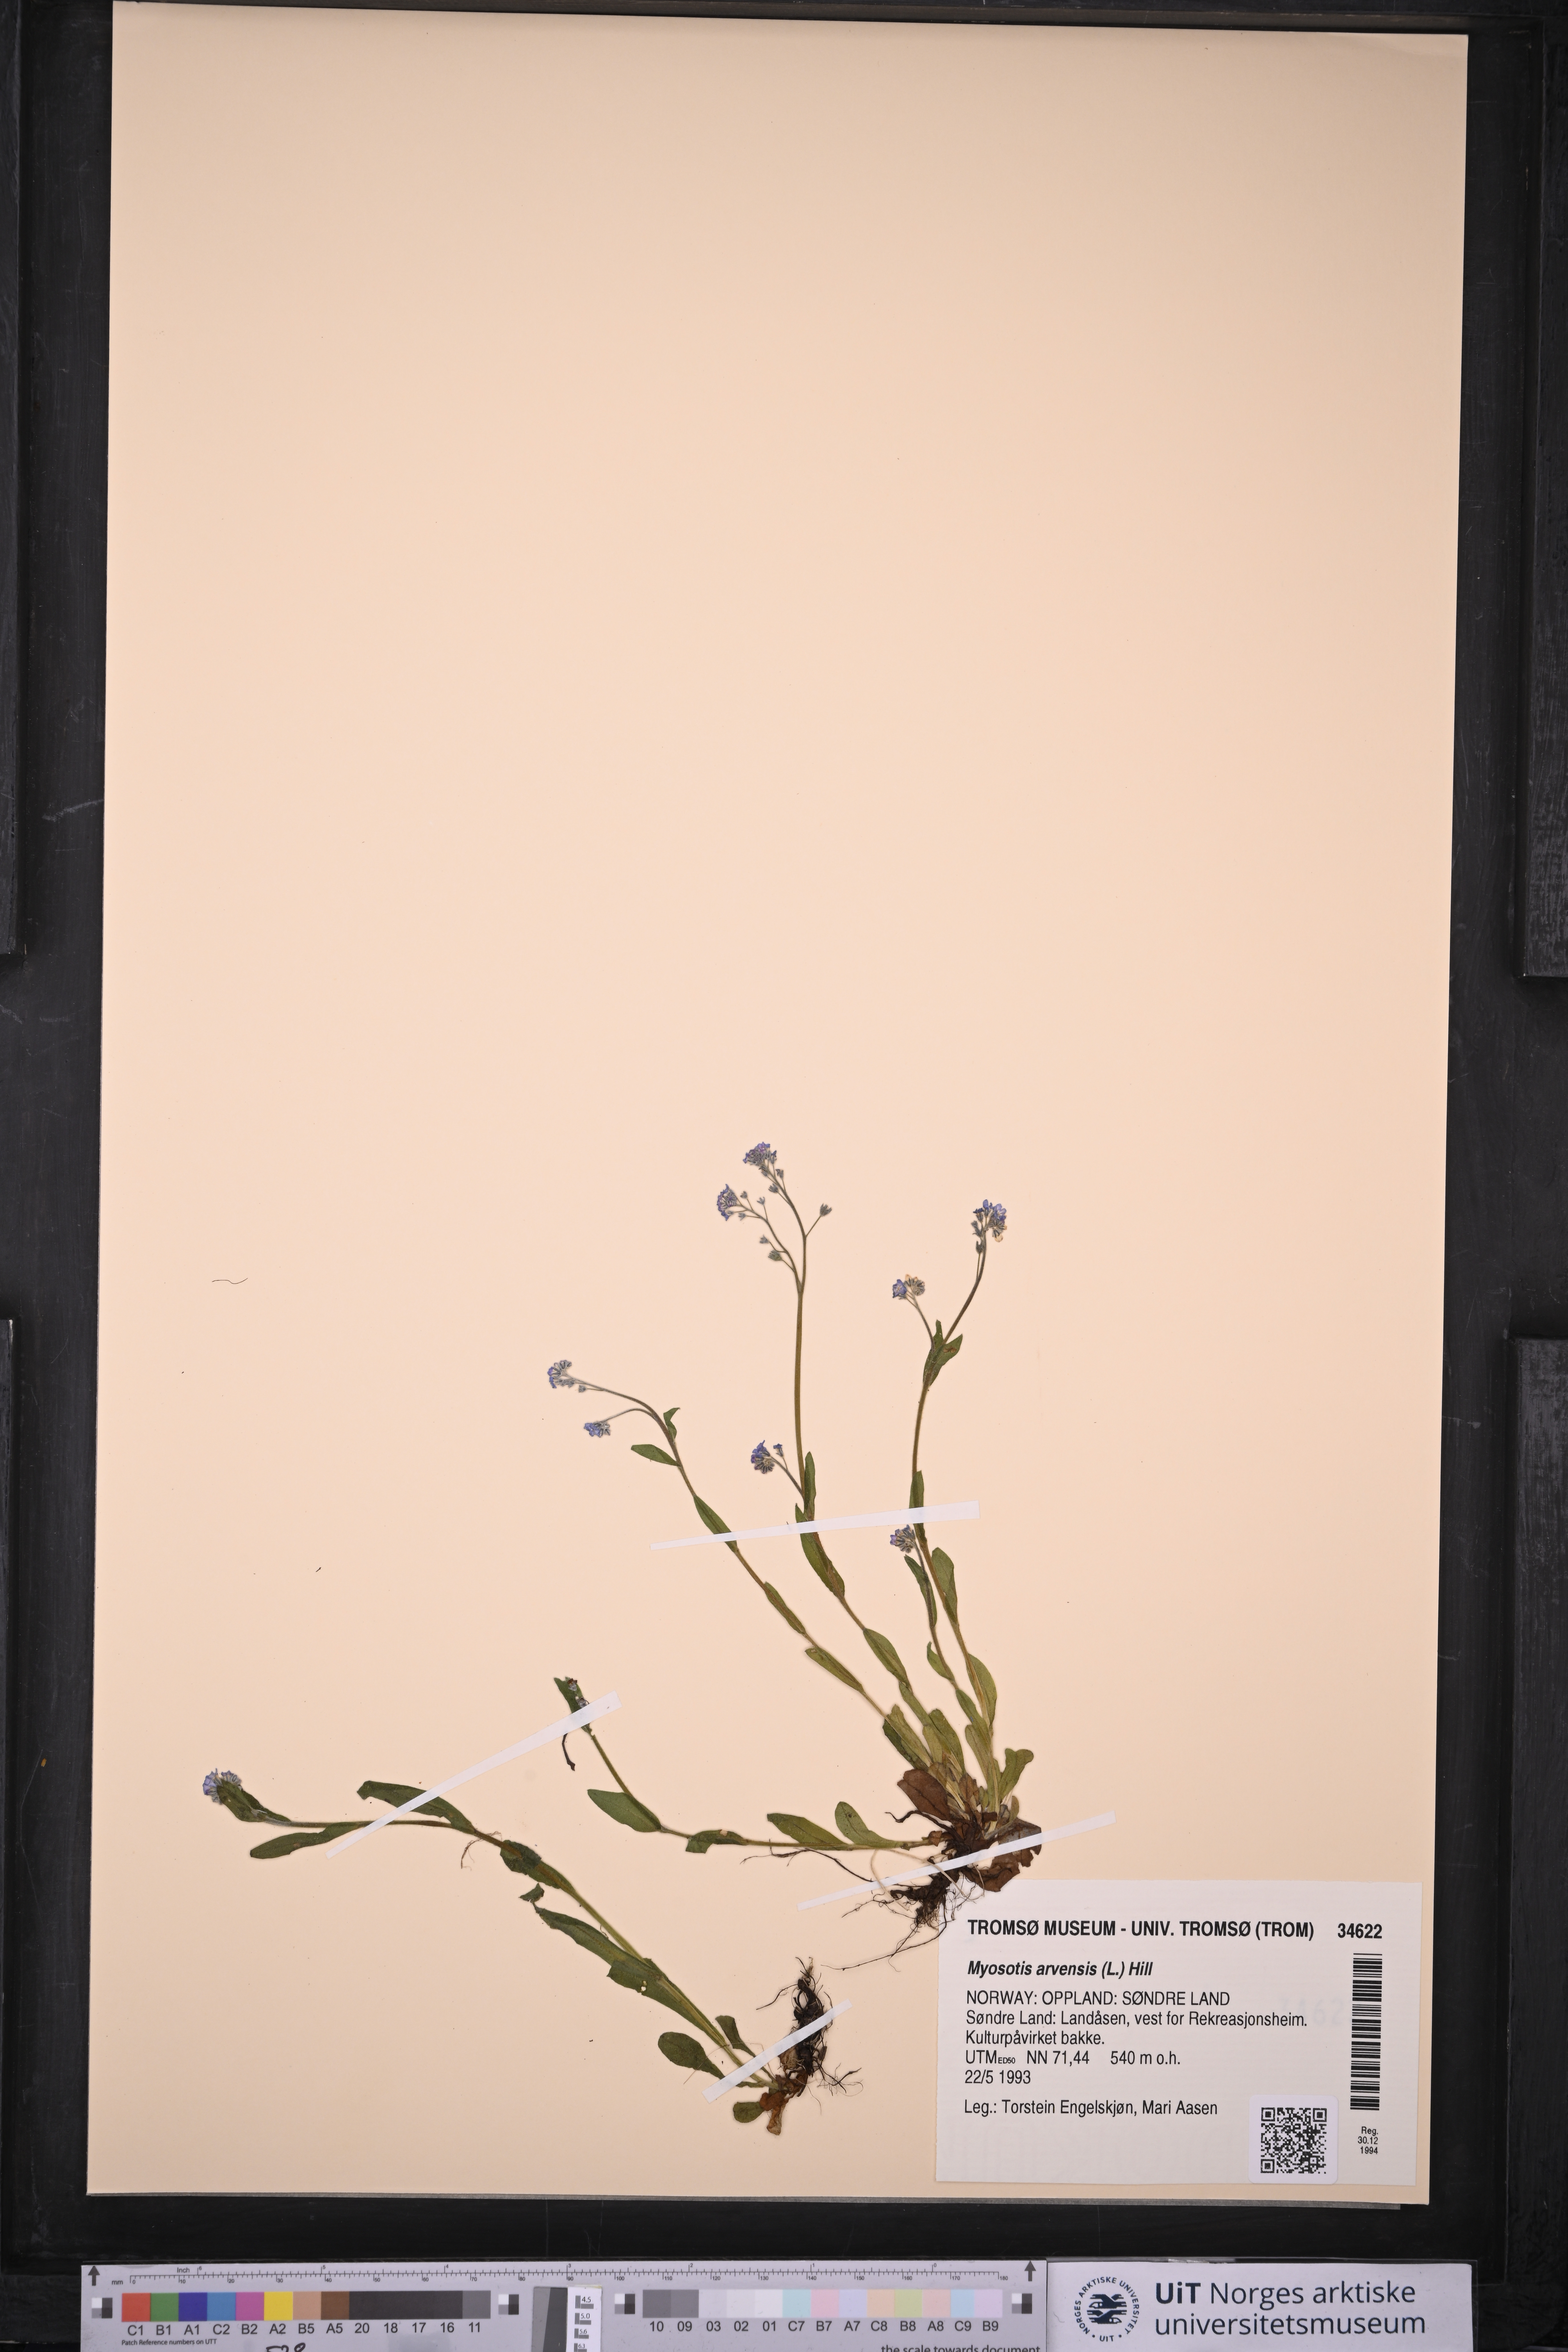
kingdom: Plantae
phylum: Tracheophyta
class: Magnoliopsida
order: Boraginales
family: Boraginaceae
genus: Myosotis
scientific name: Myosotis arvensis
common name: Field forget-me-not
